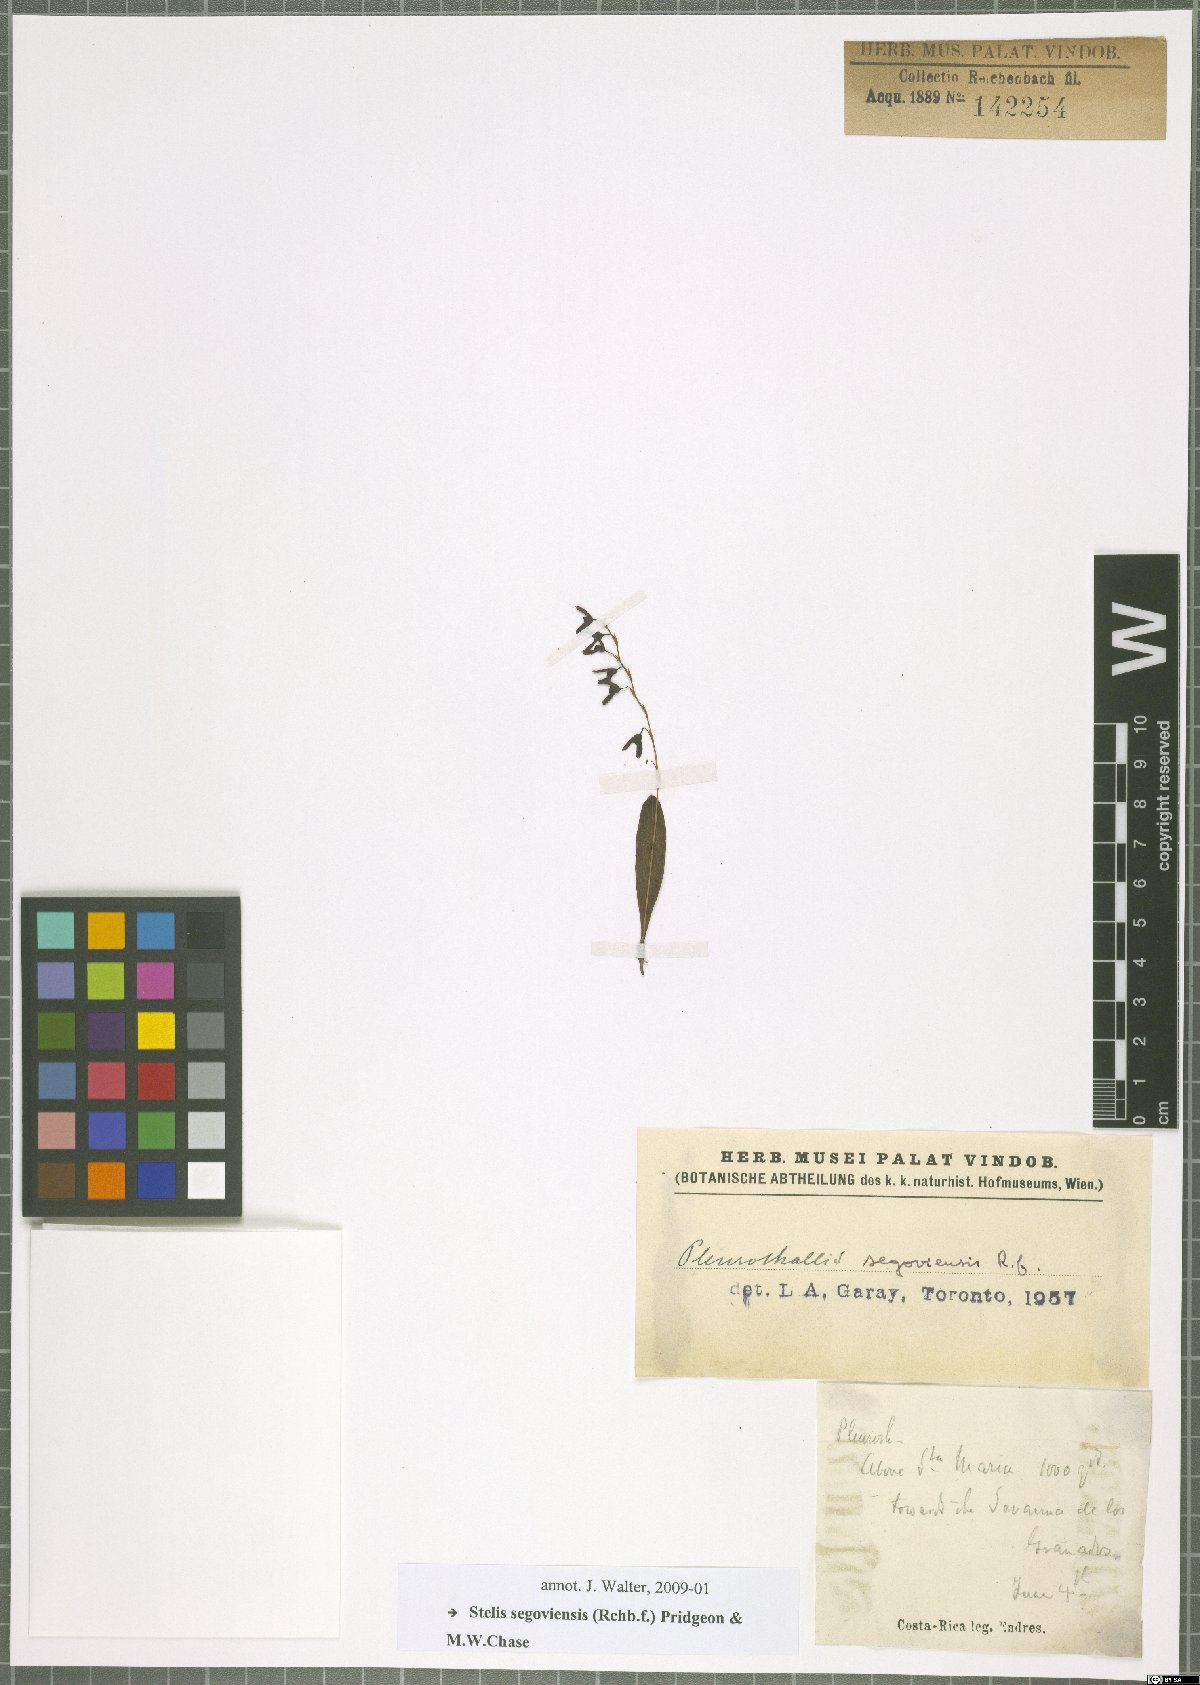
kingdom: Plantae
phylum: Tracheophyta
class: Liliopsida
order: Asparagales
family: Orchidaceae
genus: Stelis
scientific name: Stelis segoviensis
